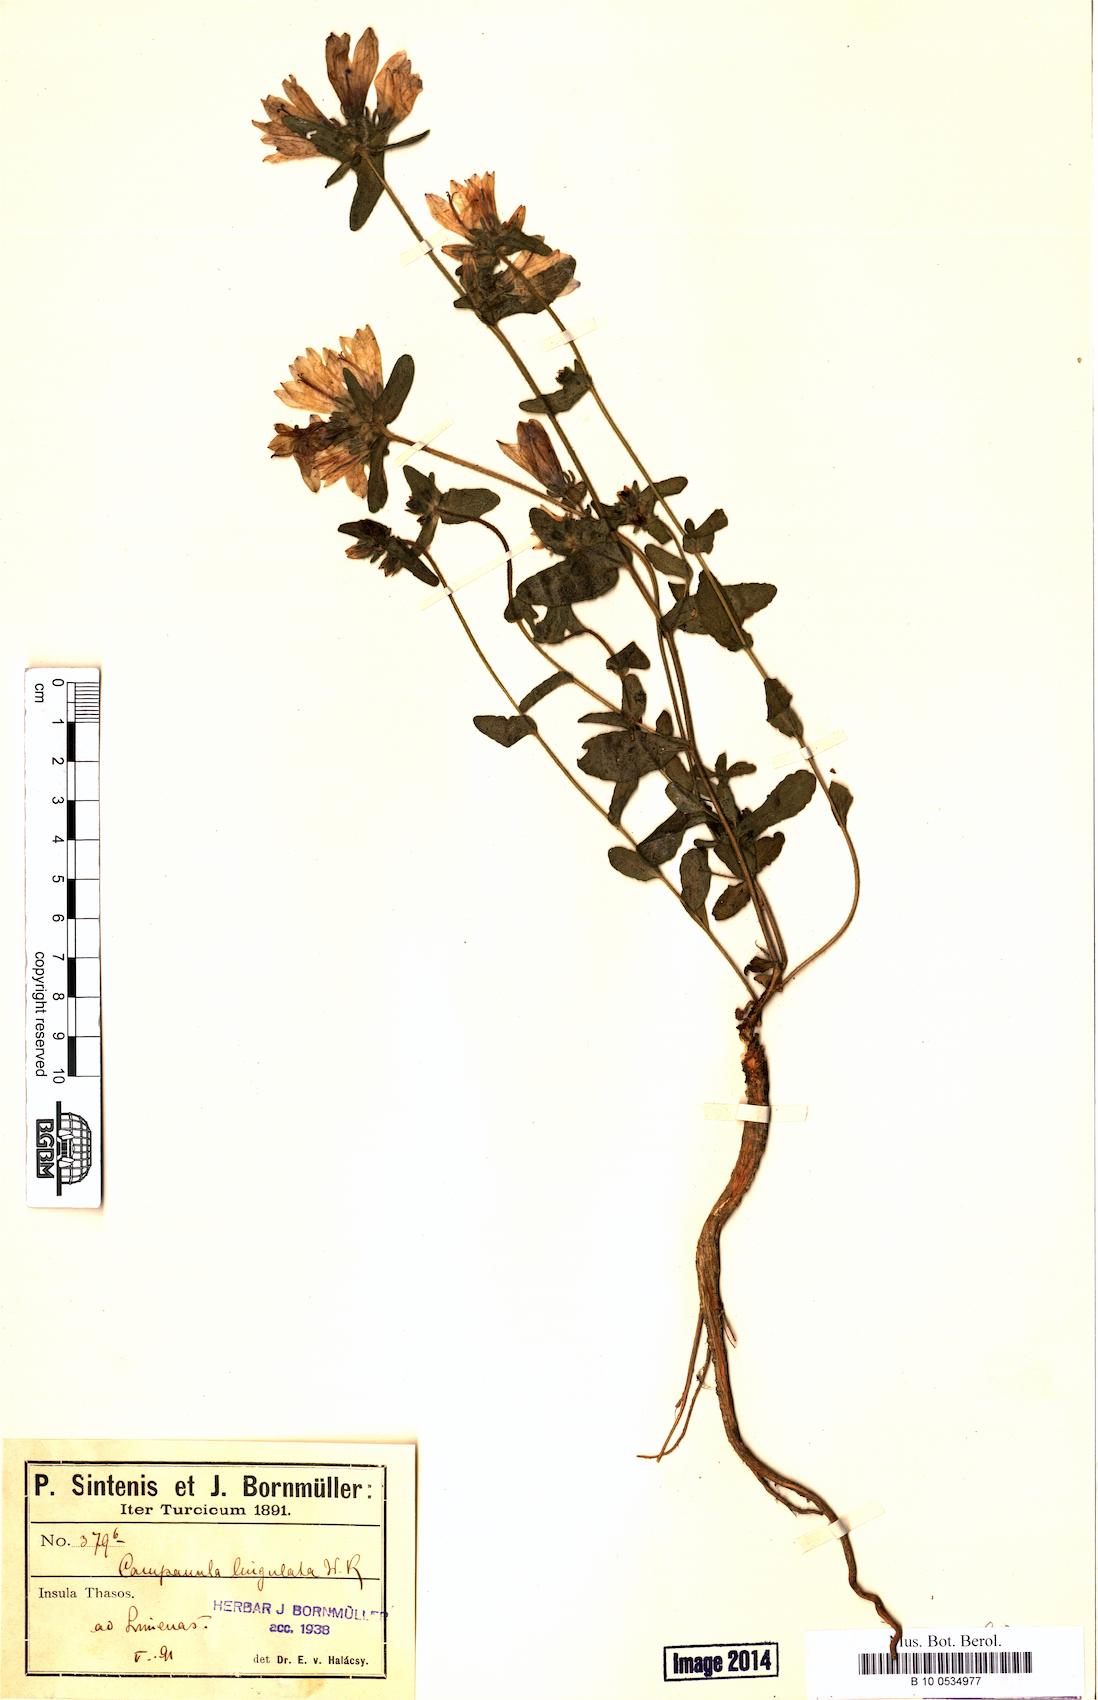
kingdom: Plantae
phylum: Tracheophyta
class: Magnoliopsida
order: Asterales
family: Campanulaceae
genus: Campanula
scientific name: Campanula lingulata
